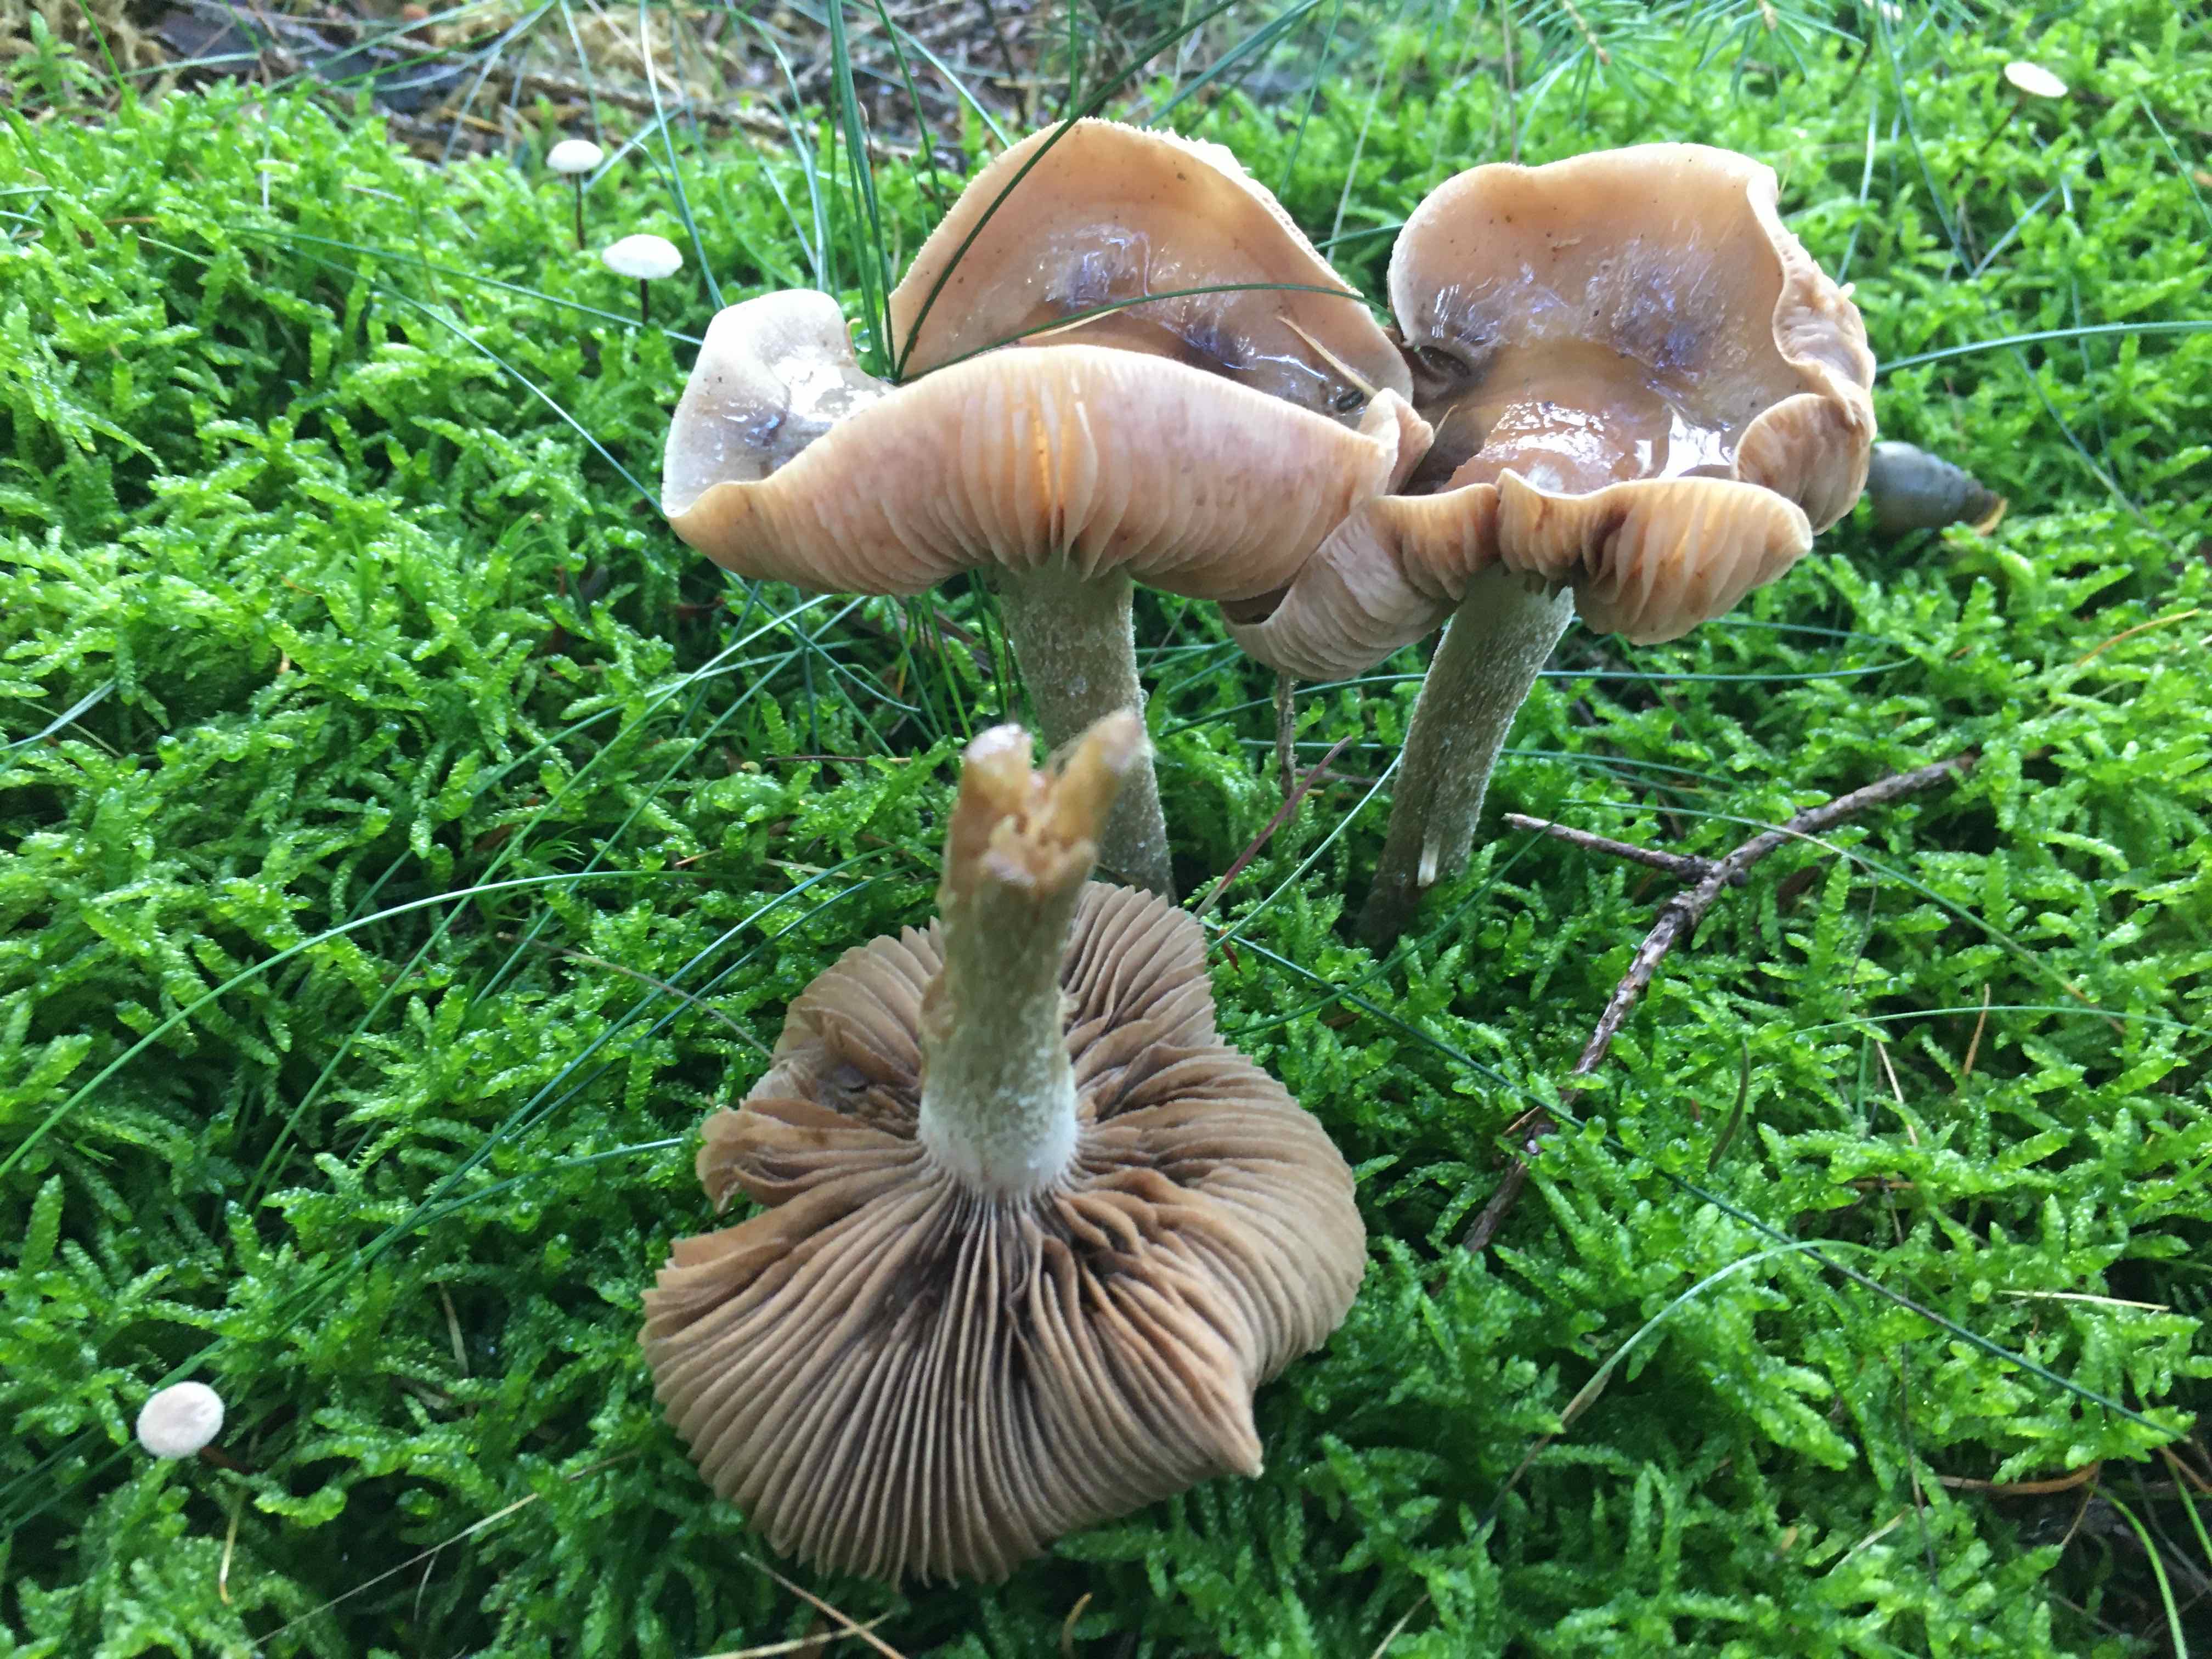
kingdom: Fungi
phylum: Basidiomycota
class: Agaricomycetes
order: Agaricales
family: Hymenogastraceae
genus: Hebeloma
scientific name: Hebeloma
